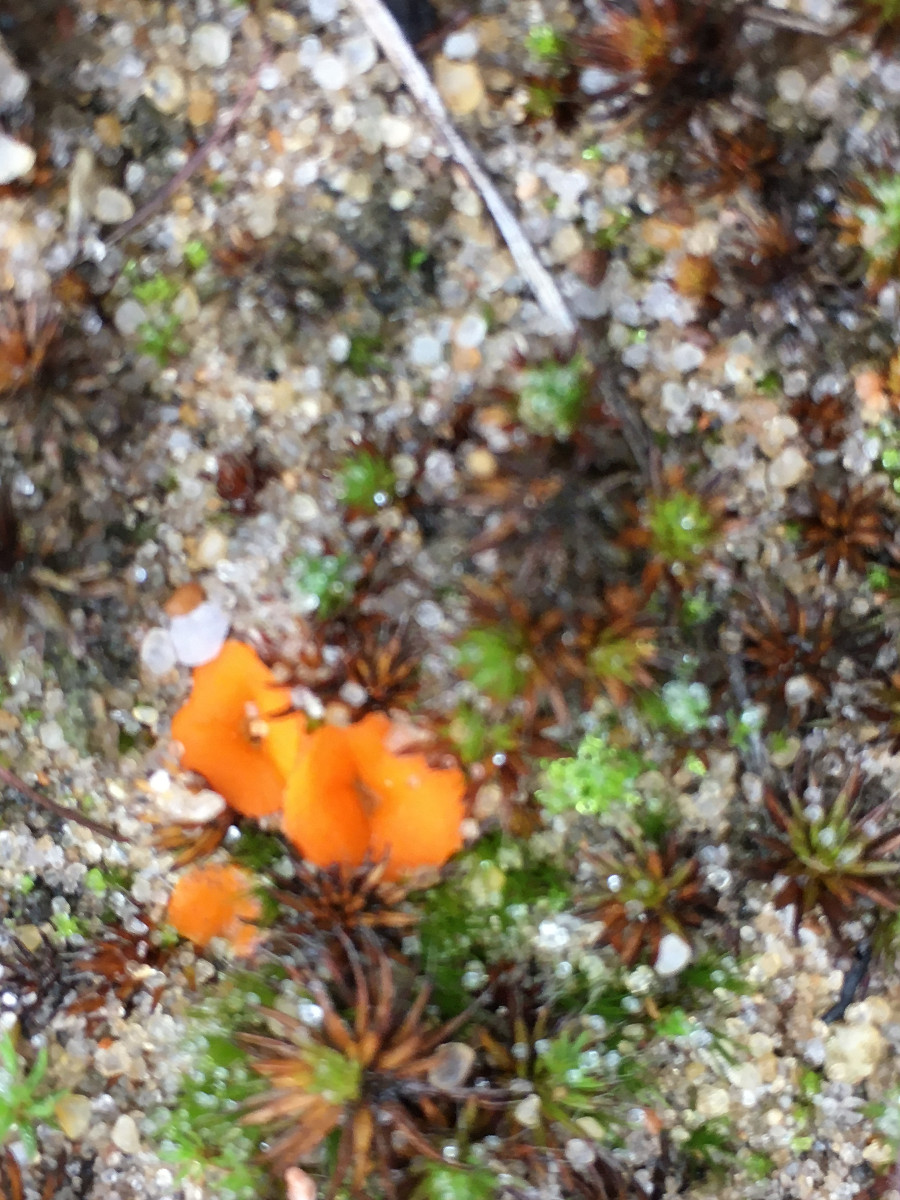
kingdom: Fungi
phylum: Ascomycota
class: Pezizomycetes
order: Pezizales
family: Pyronemataceae
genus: Neottiella
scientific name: Neottiella
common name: mosbæger
